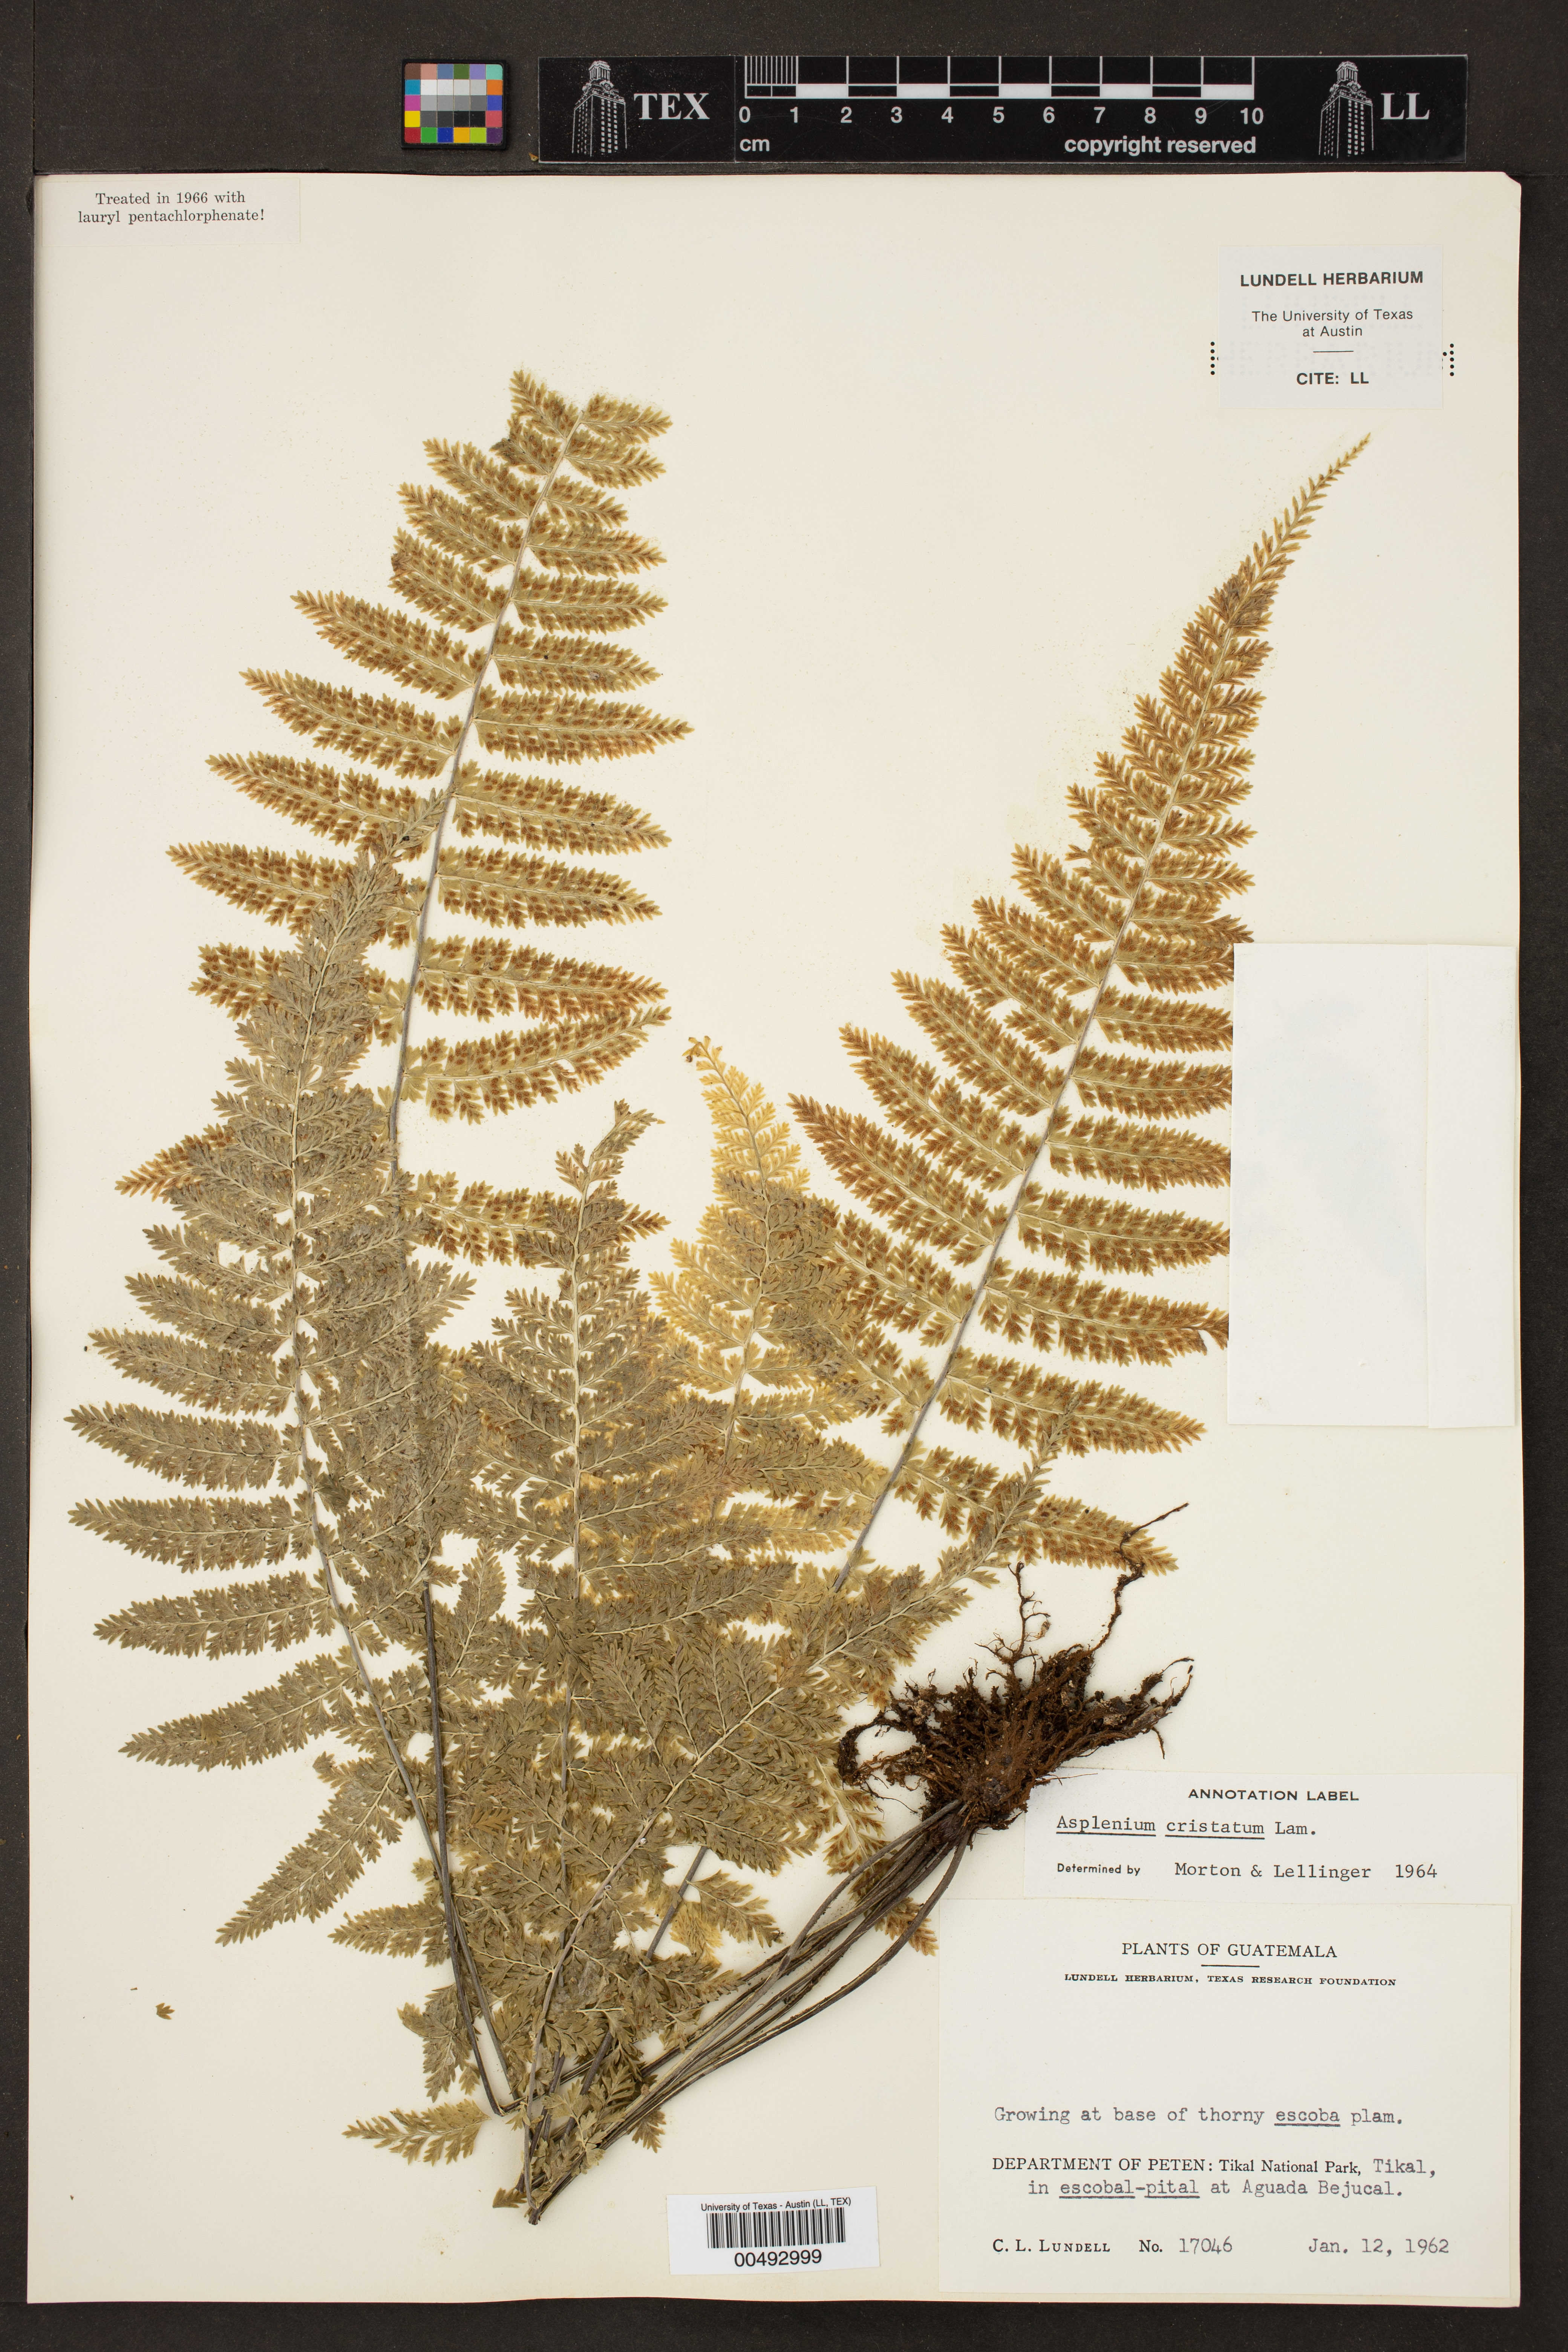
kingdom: Plantae
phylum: Tracheophyta
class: Polypodiopsida
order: Polypodiales
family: Aspleniaceae
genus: Asplenium
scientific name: Asplenium cristatum
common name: Parsley spleenwort
